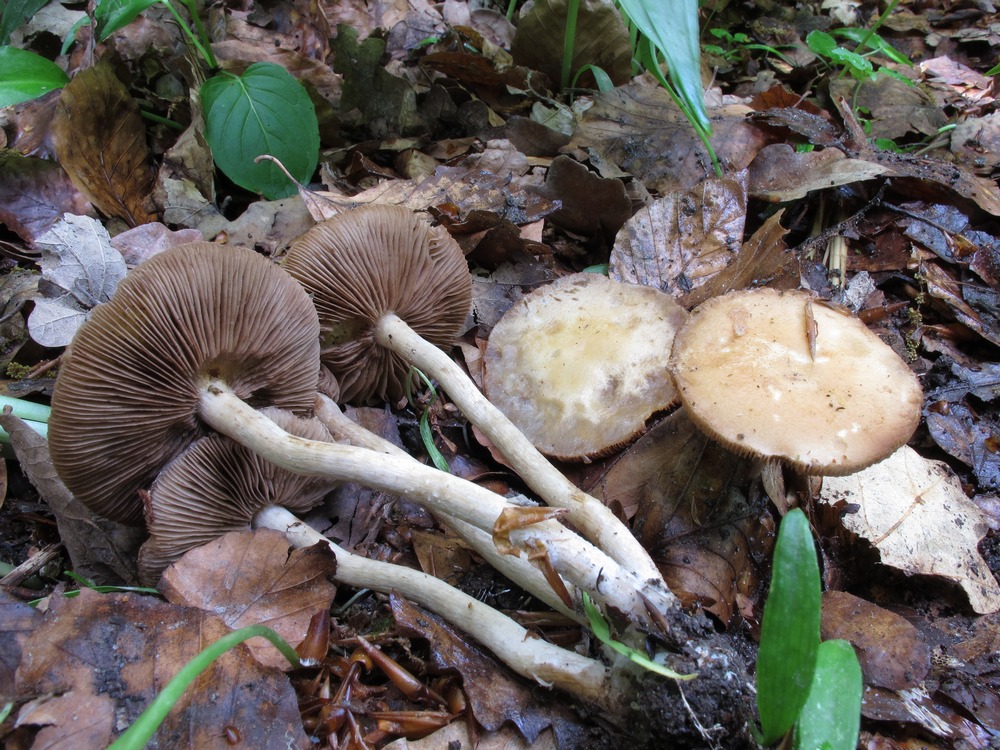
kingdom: Fungi
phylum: Basidiomycota
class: Agaricomycetes
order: Agaricales
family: Psathyrellaceae
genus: Psathyrella
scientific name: Psathyrella spadiceogrisea
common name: gråbrun mørkhat
